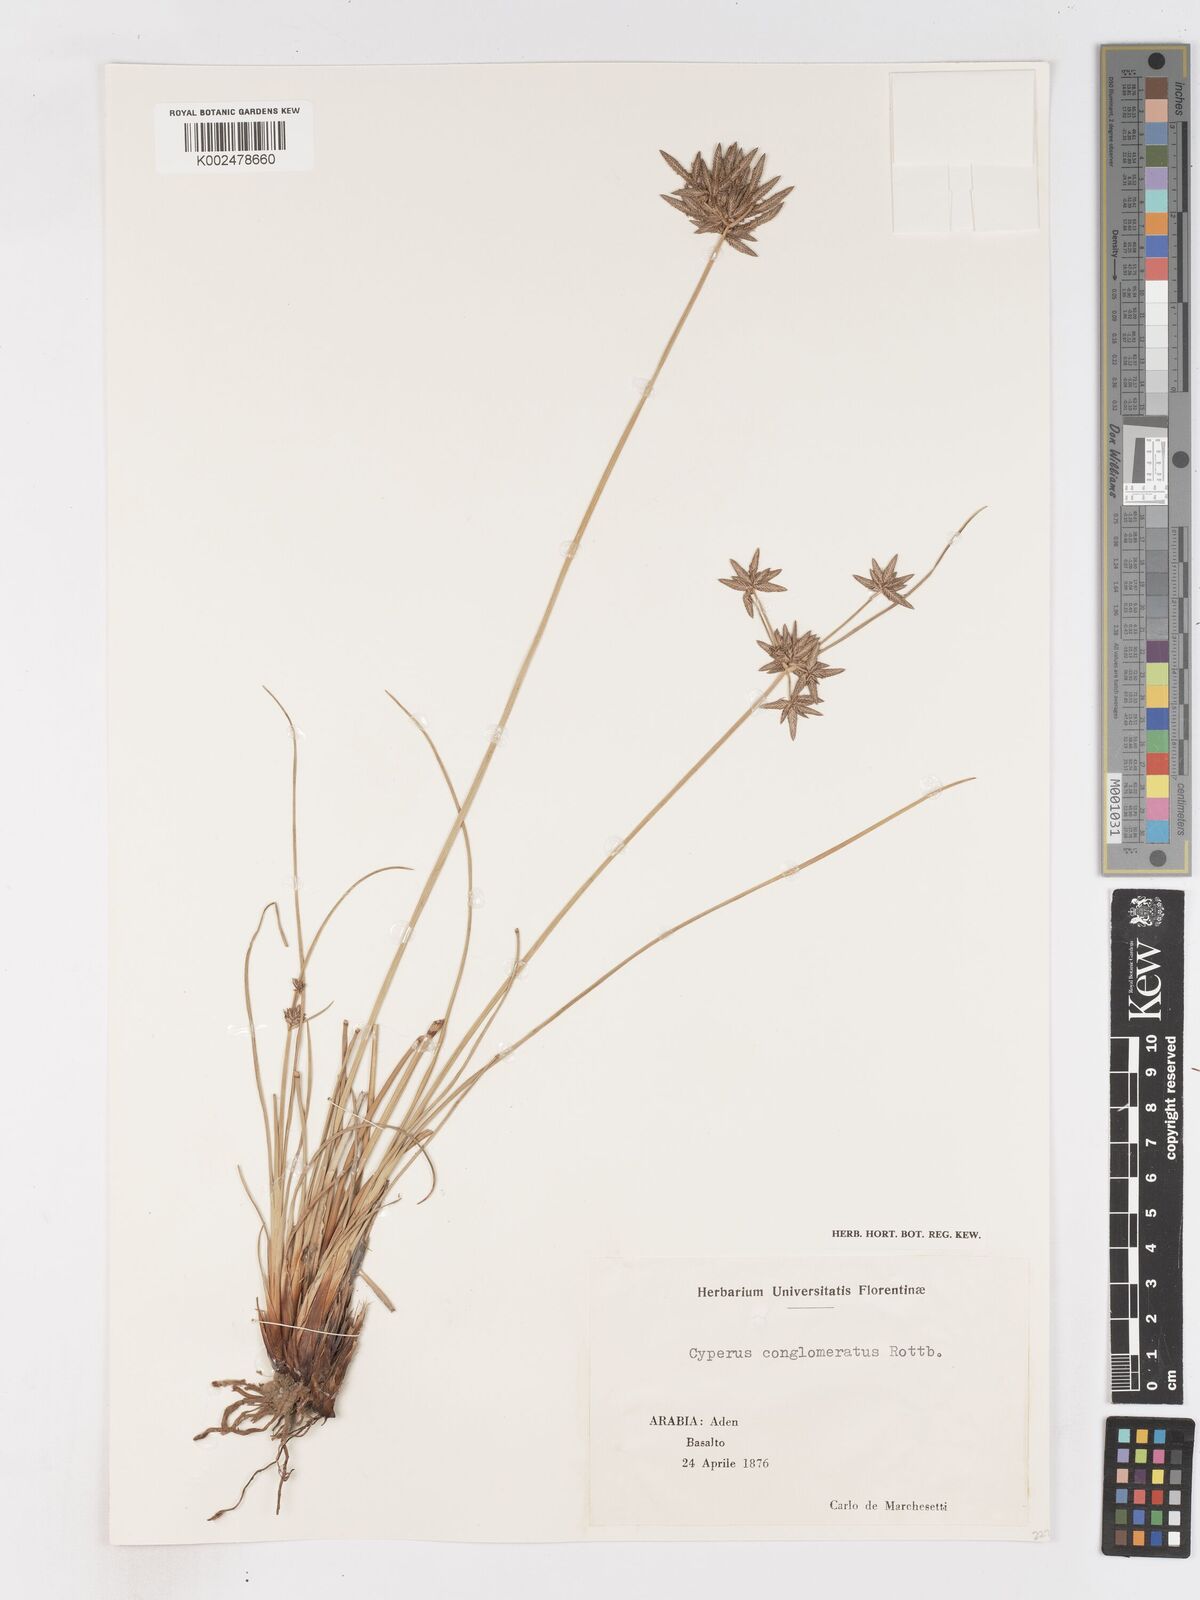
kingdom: Plantae
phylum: Tracheophyta
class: Liliopsida
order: Poales
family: Cyperaceae
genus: Cyperus
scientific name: Cyperus conglomeratus
